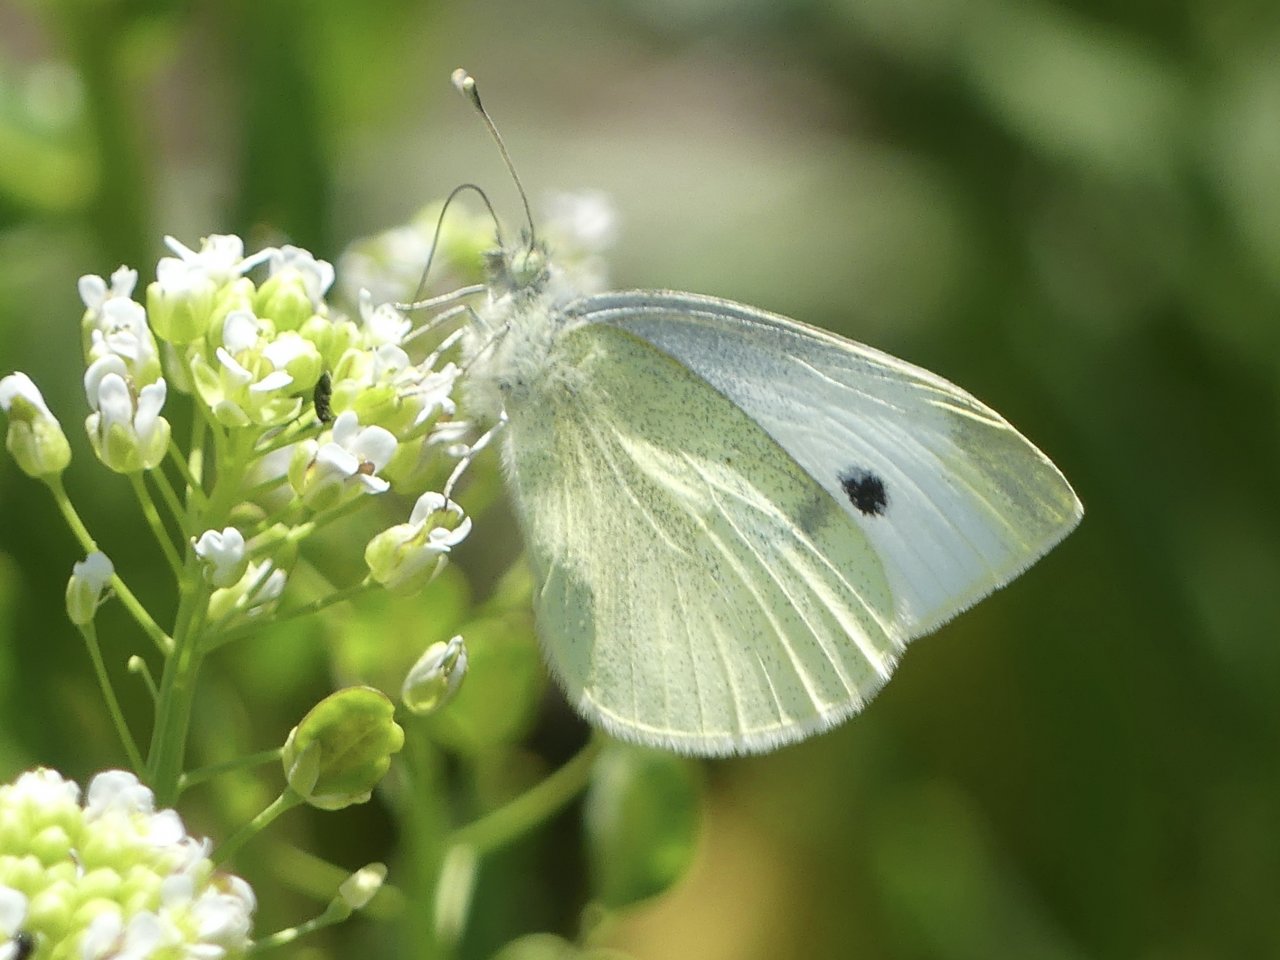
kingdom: Animalia
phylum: Arthropoda
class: Insecta
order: Lepidoptera
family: Pieridae
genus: Pieris
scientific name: Pieris rapae
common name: Cabbage White
